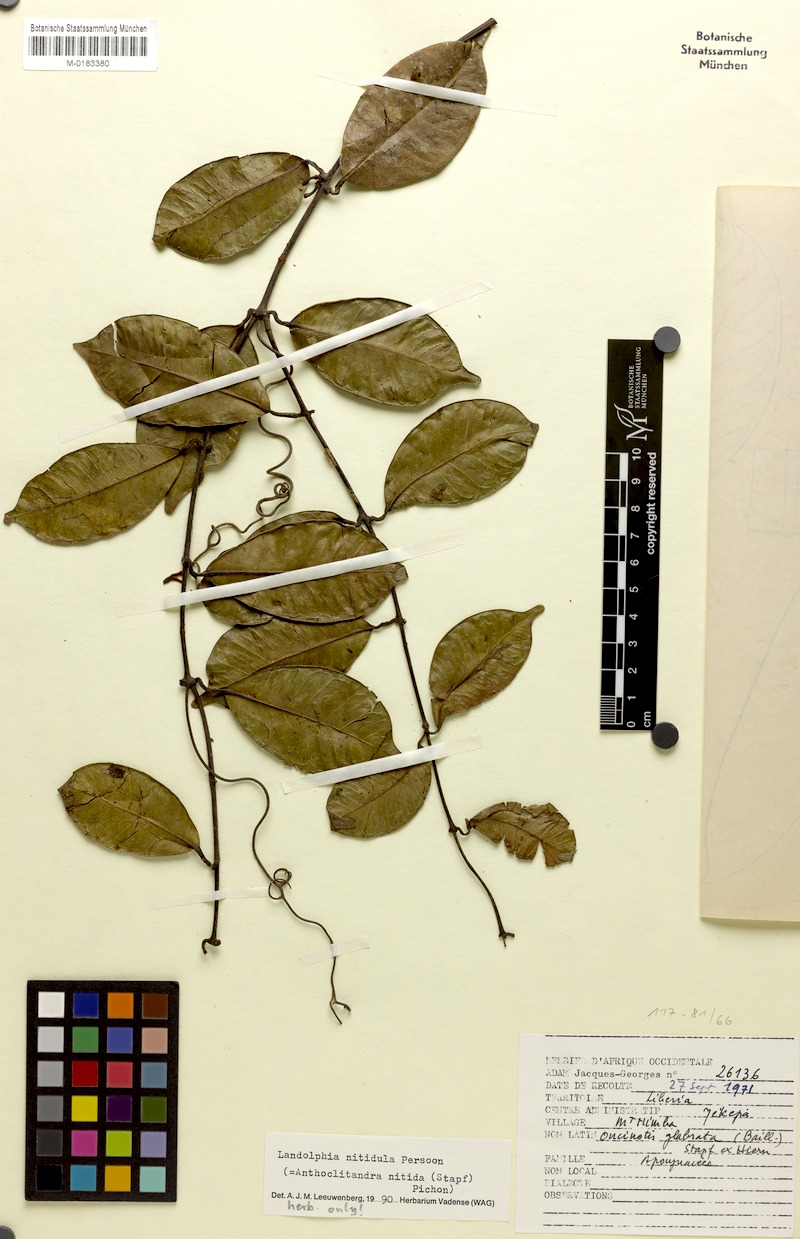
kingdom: Plantae
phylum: Tracheophyta
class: Magnoliopsida
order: Gentianales
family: Apocynaceae
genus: Landolphia
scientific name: Landolphia nitidula
